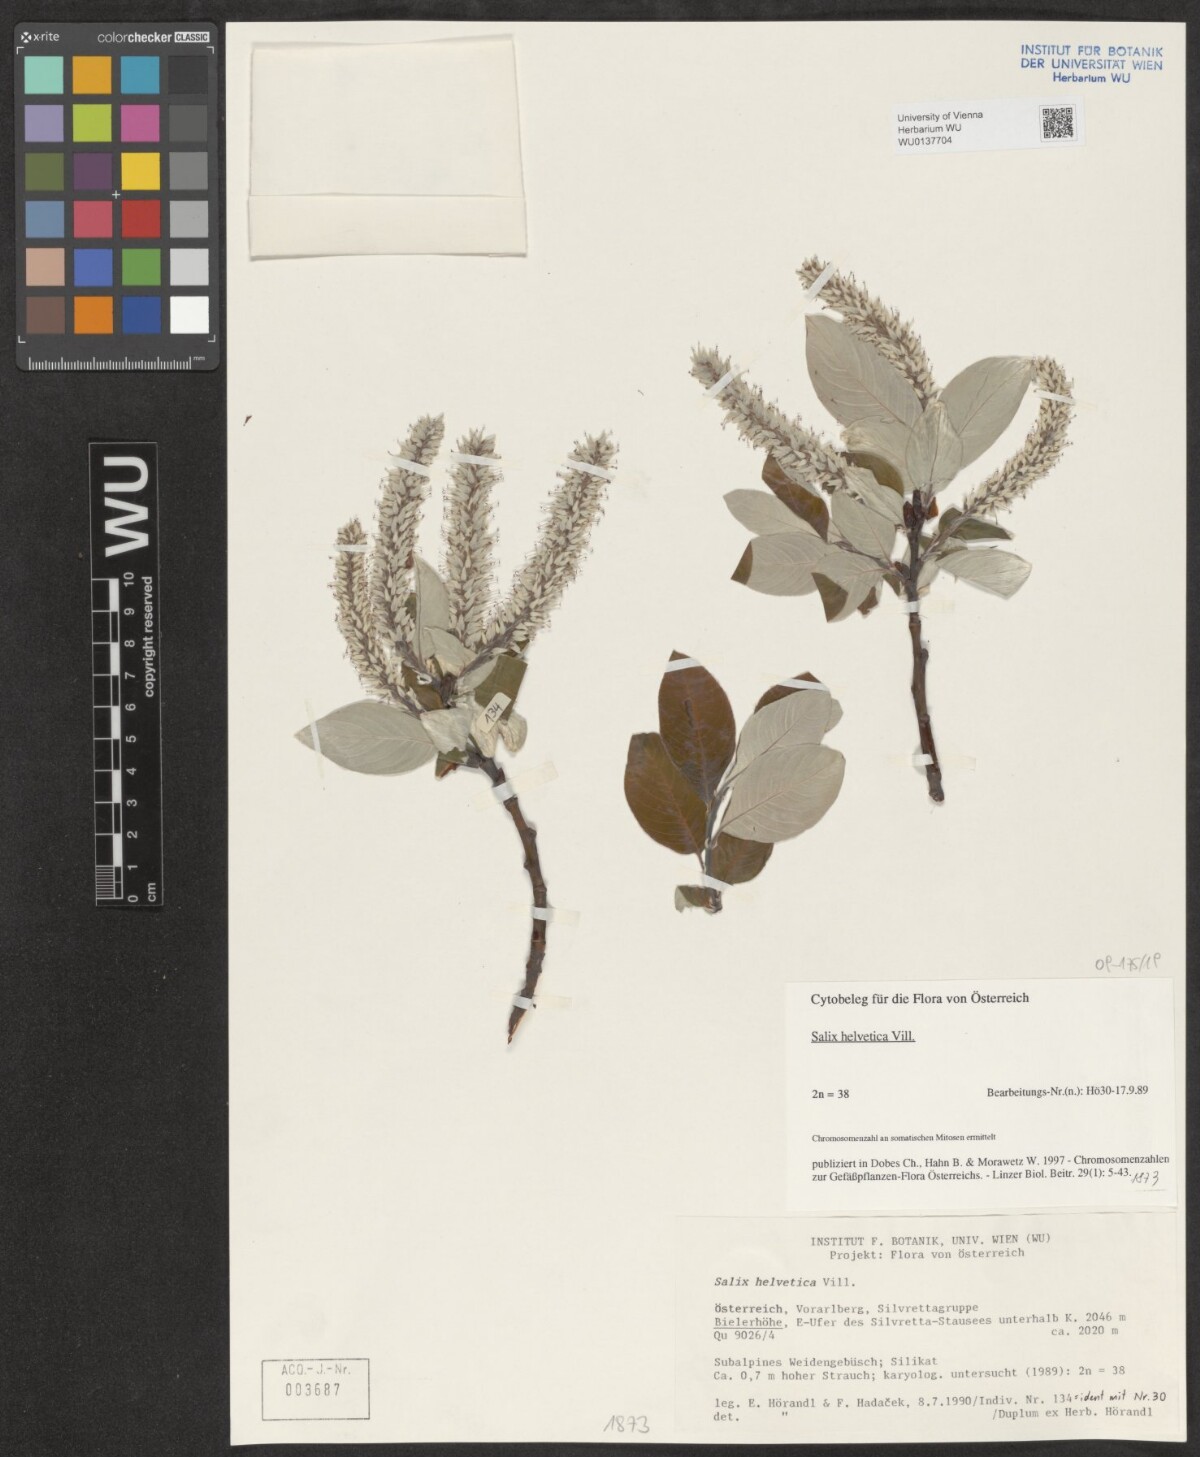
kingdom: Plantae
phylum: Tracheophyta
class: Magnoliopsida
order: Malpighiales
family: Salicaceae
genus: Salix
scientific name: Salix helvetica
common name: Swiss willow
